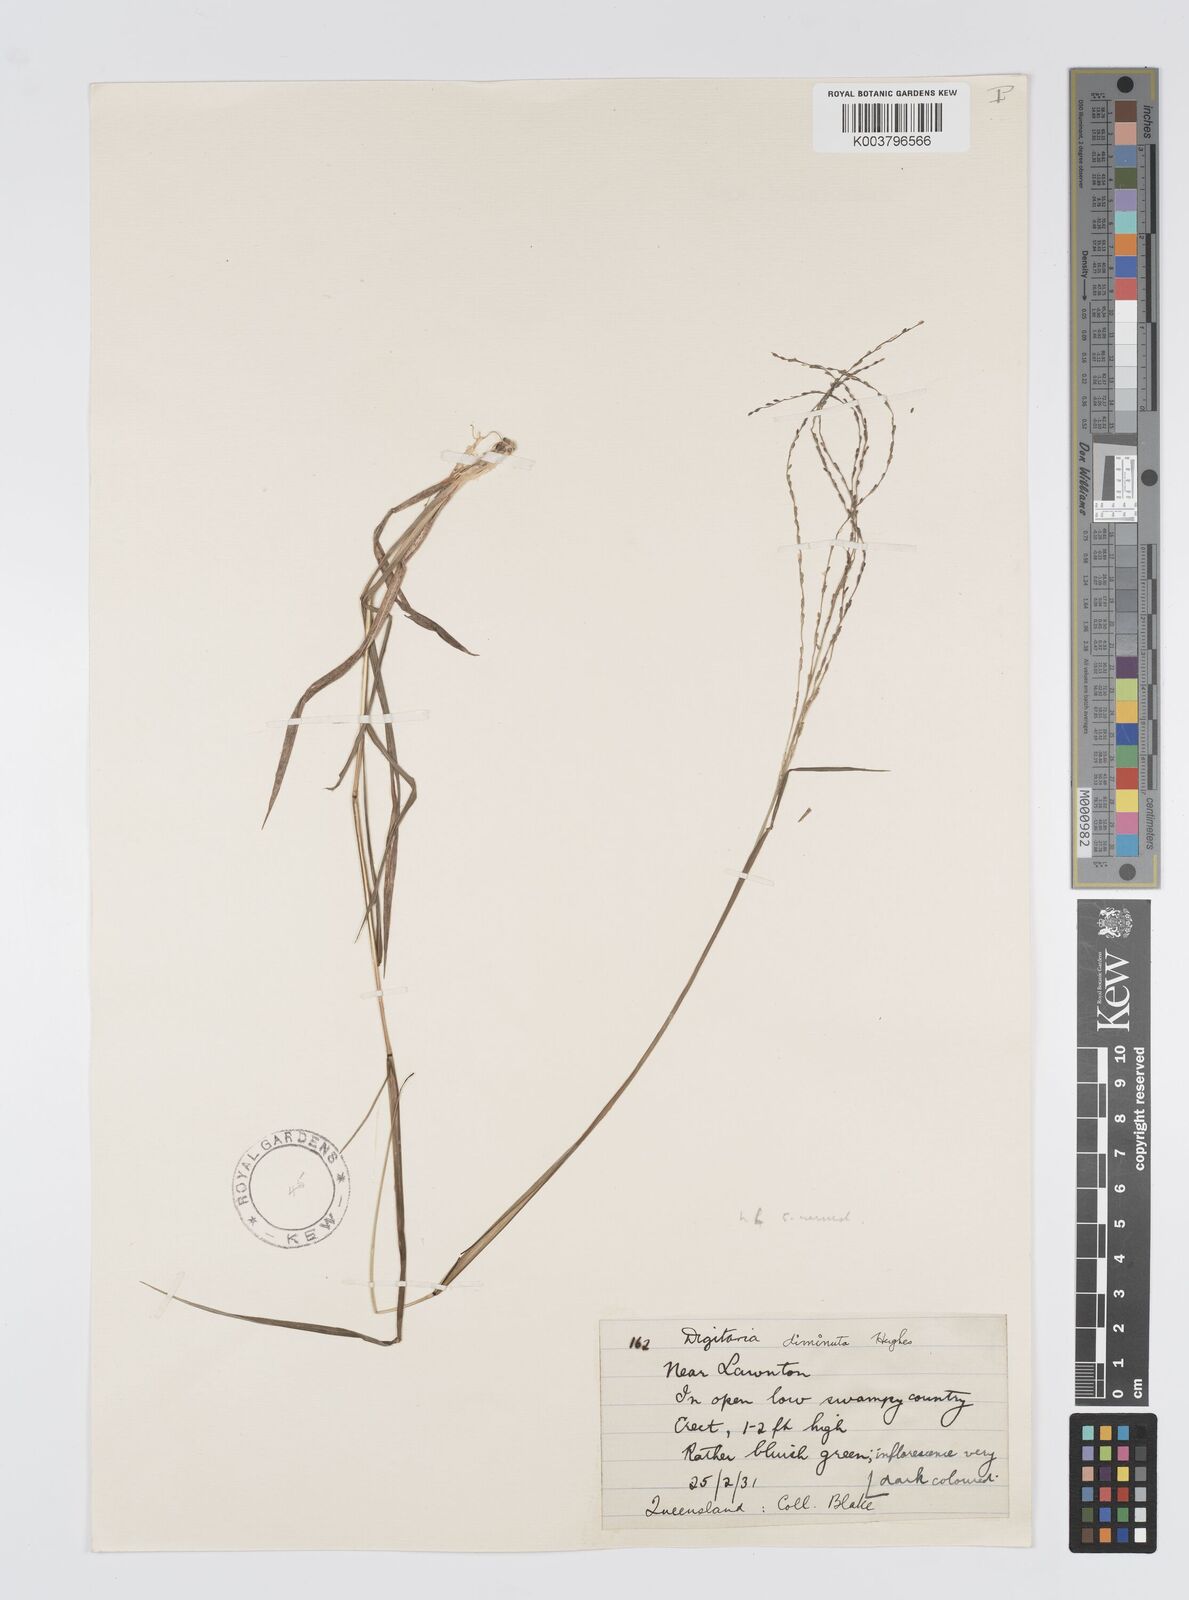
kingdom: Plantae
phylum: Tracheophyta
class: Liliopsida
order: Poales
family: Poaceae
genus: Digitaria
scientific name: Digitaria breviglumis
